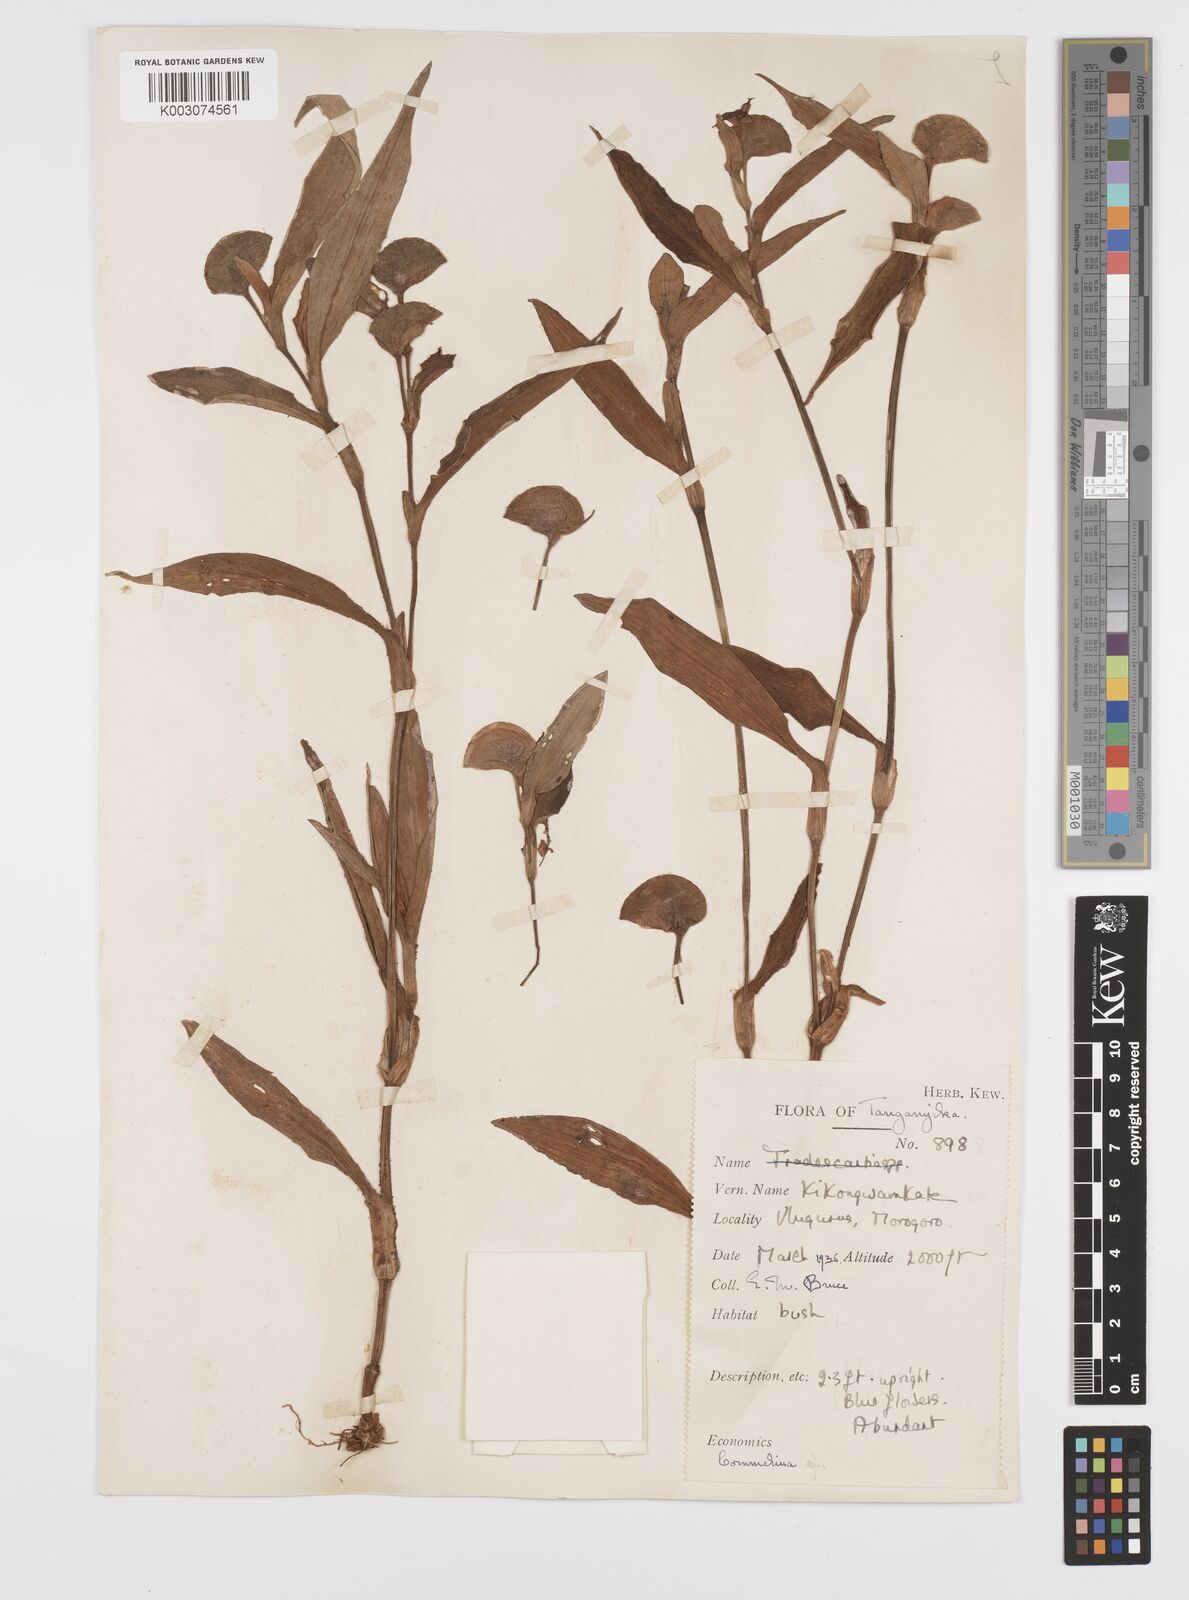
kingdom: Plantae
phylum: Tracheophyta
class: Liliopsida
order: Commelinales
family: Commelinaceae
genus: Commelina
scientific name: Commelina zambesica
